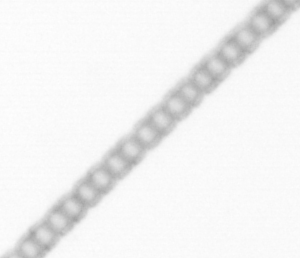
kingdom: Chromista
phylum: Ochrophyta
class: Bacillariophyceae
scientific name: Bacillariophyceae
